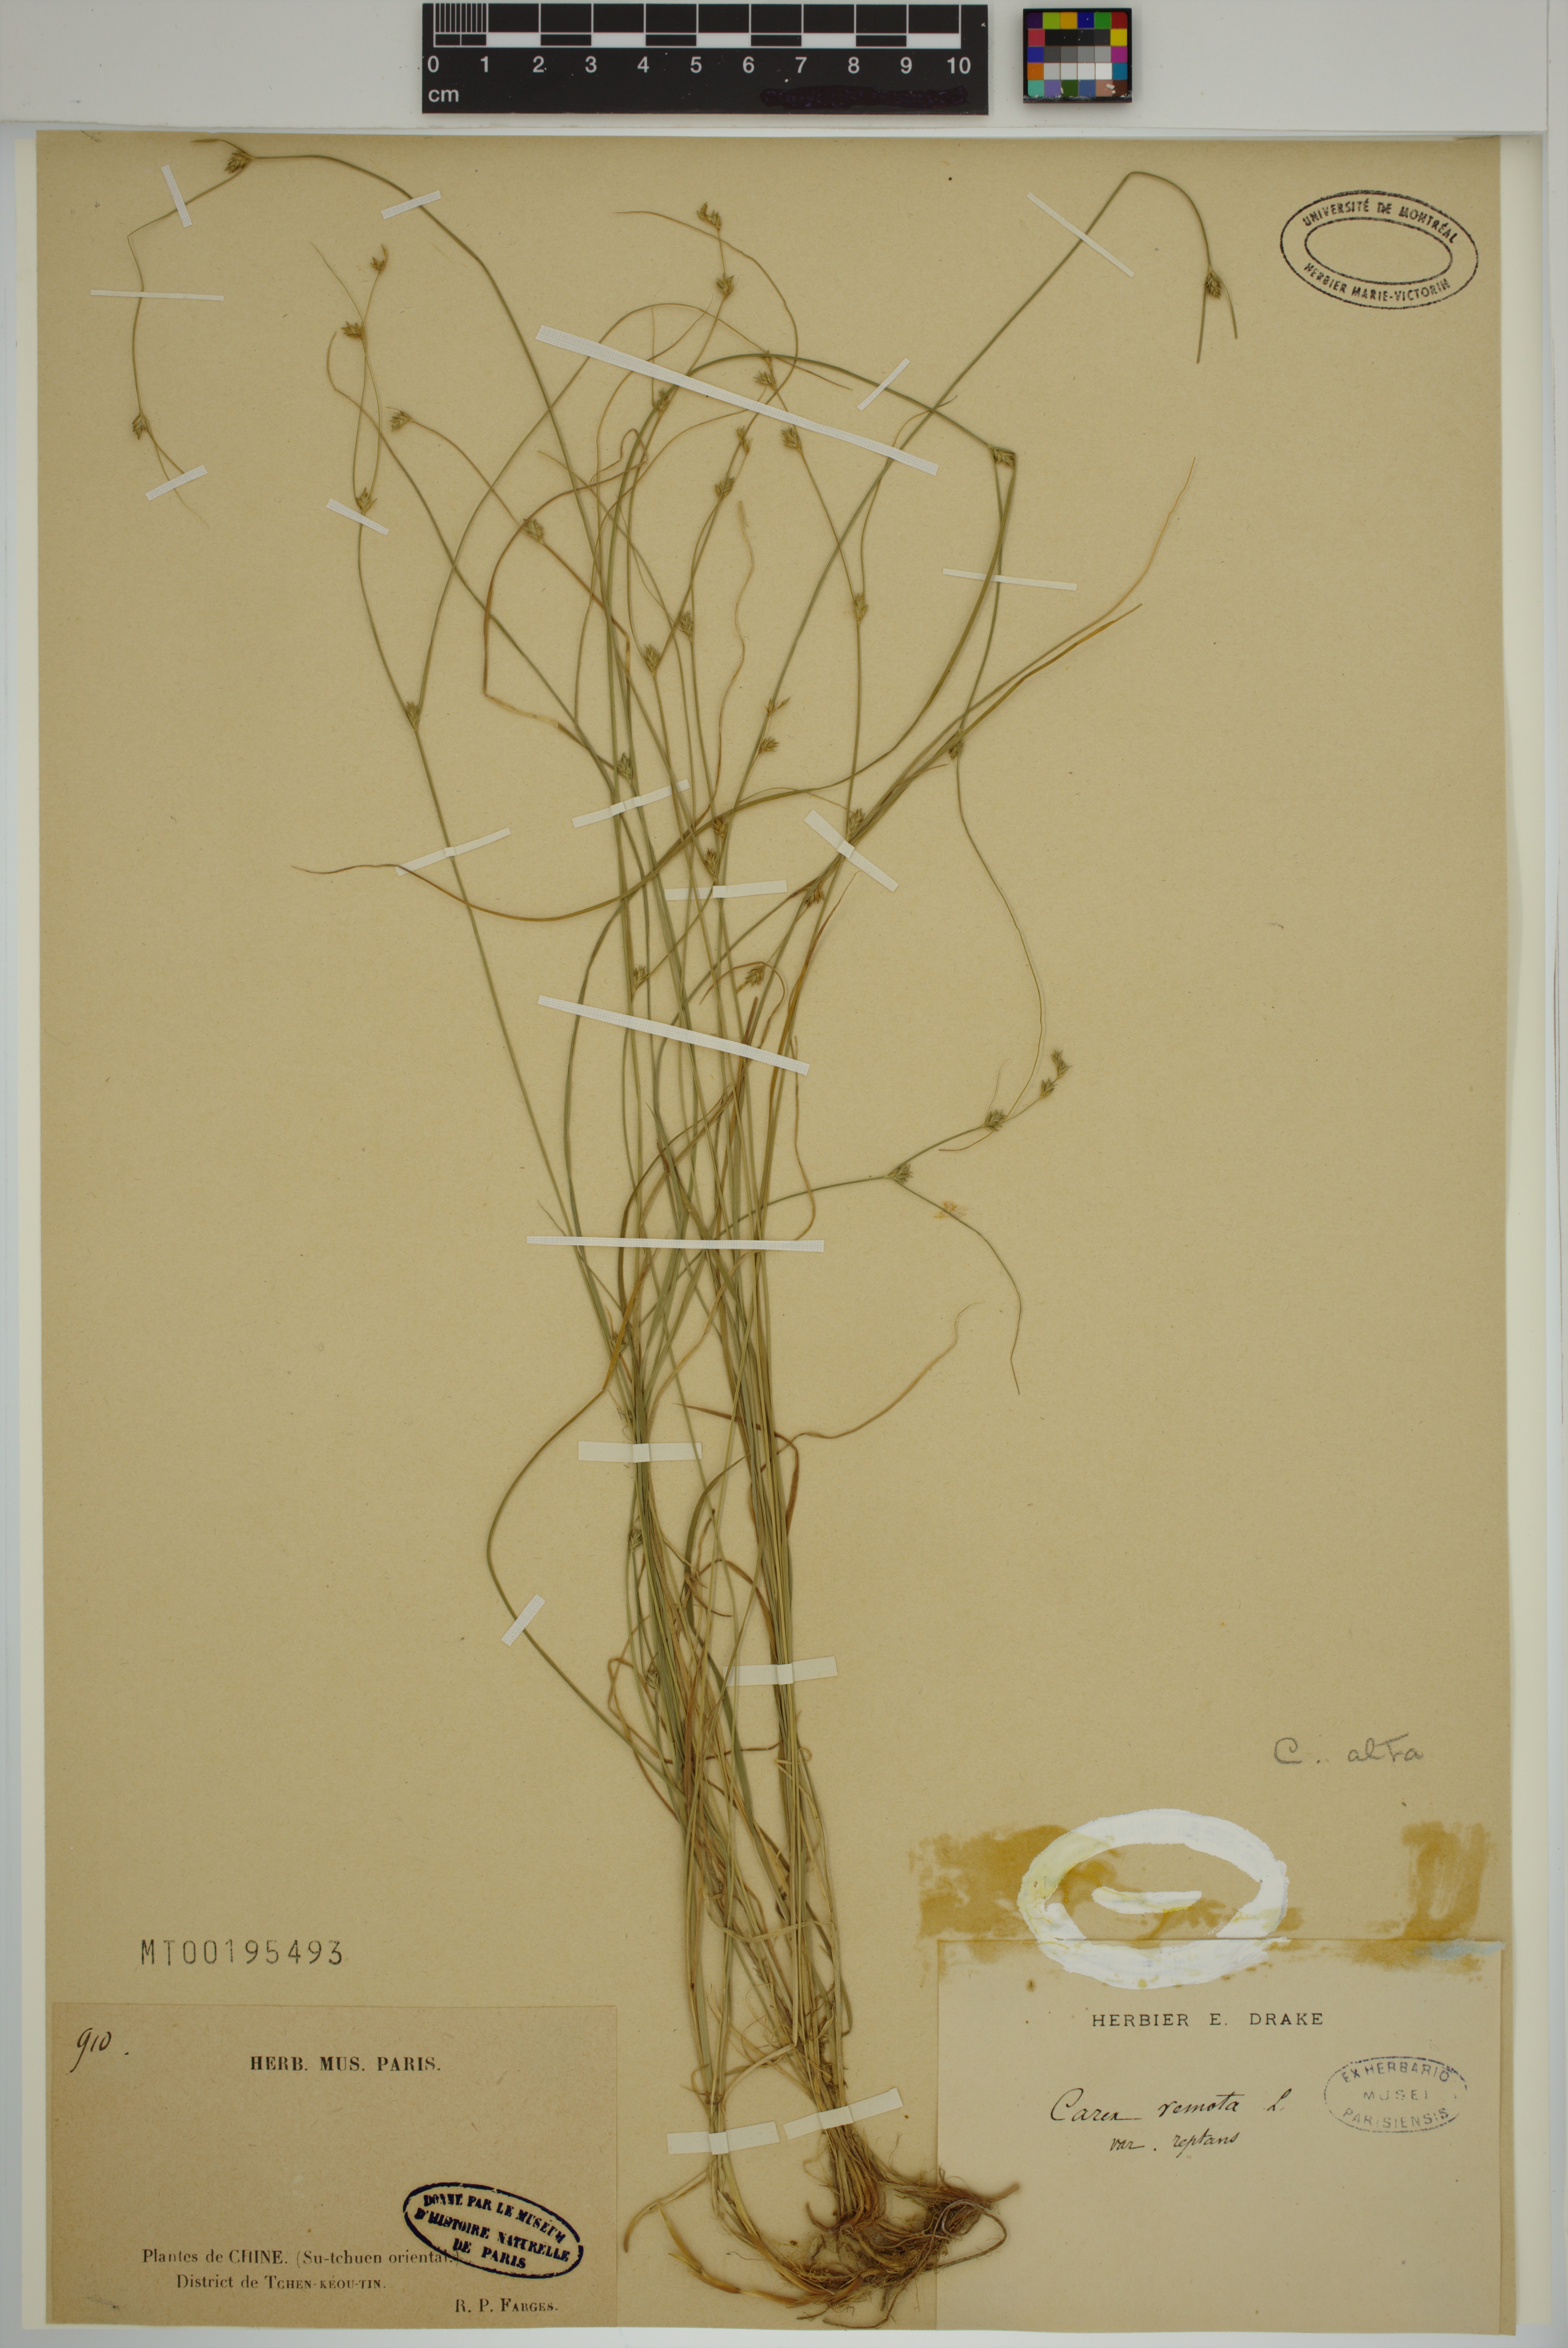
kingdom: Plantae
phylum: Tracheophyta
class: Liliopsida
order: Poales
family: Cyperaceae
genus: Carex
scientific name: Carex alta
